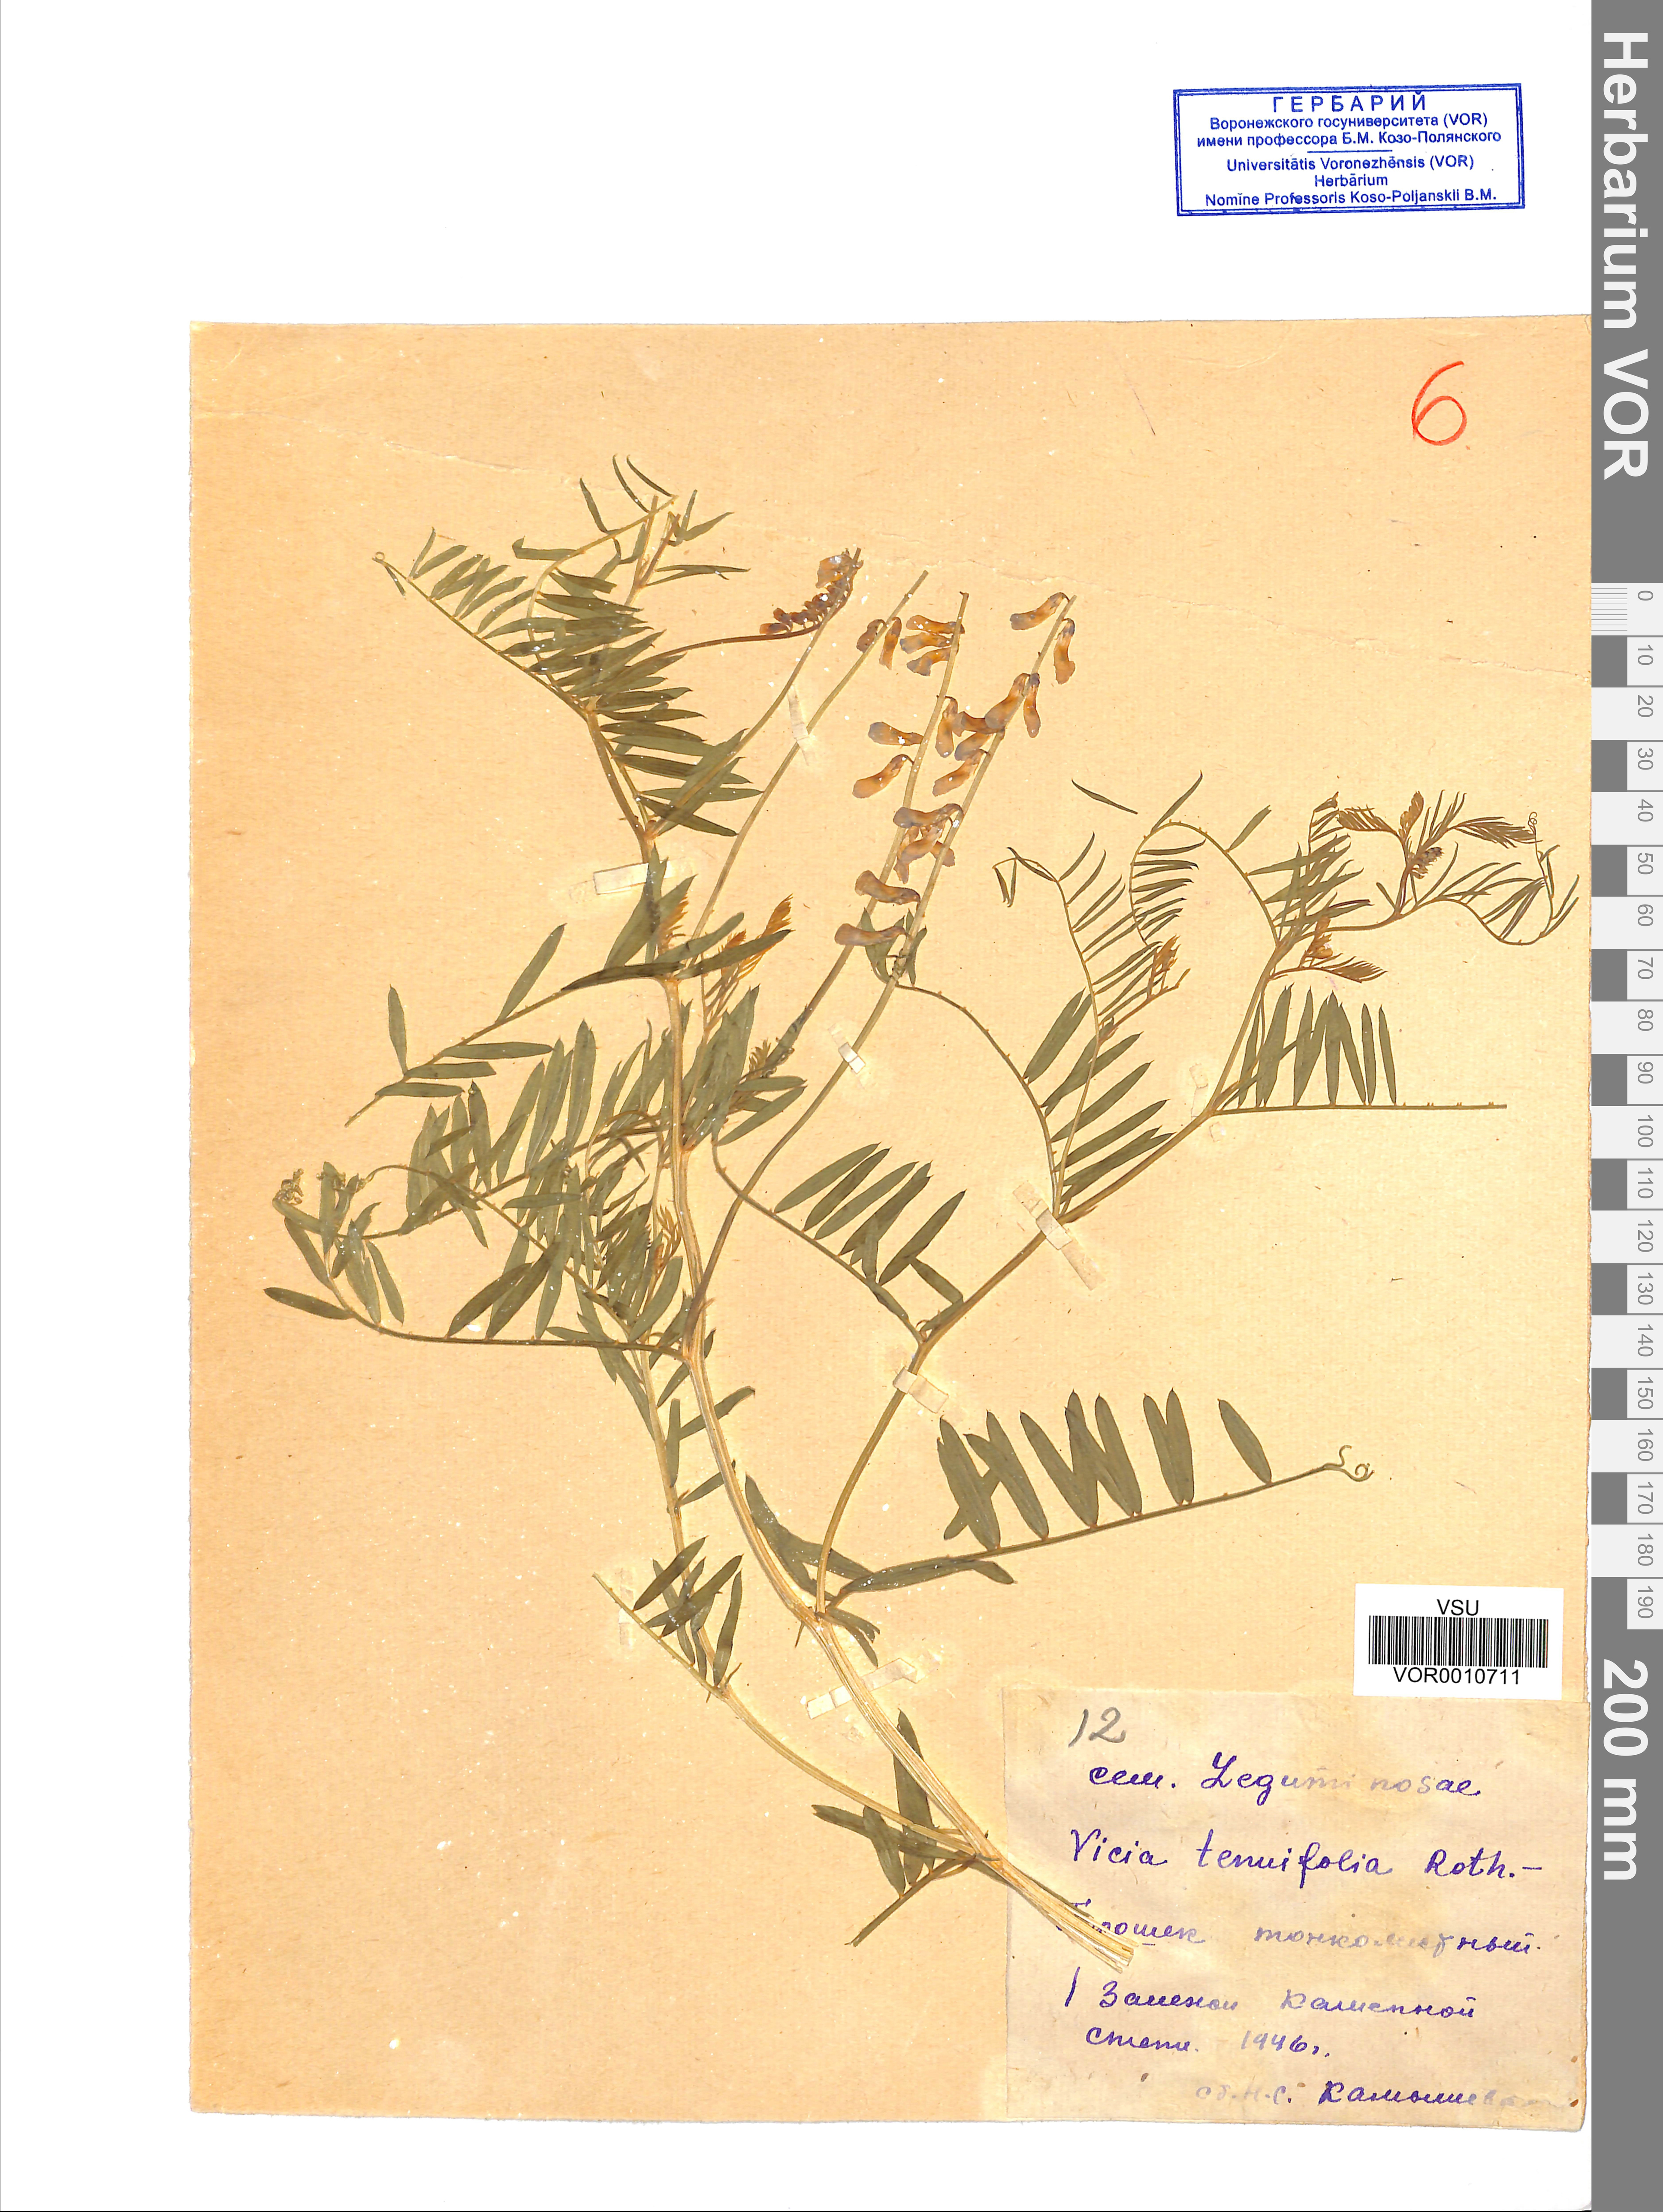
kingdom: Plantae
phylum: Tracheophyta
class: Magnoliopsida
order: Fabales
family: Fabaceae
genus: Vicia
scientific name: Vicia tenuifolia
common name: Fine-leaved vetch
